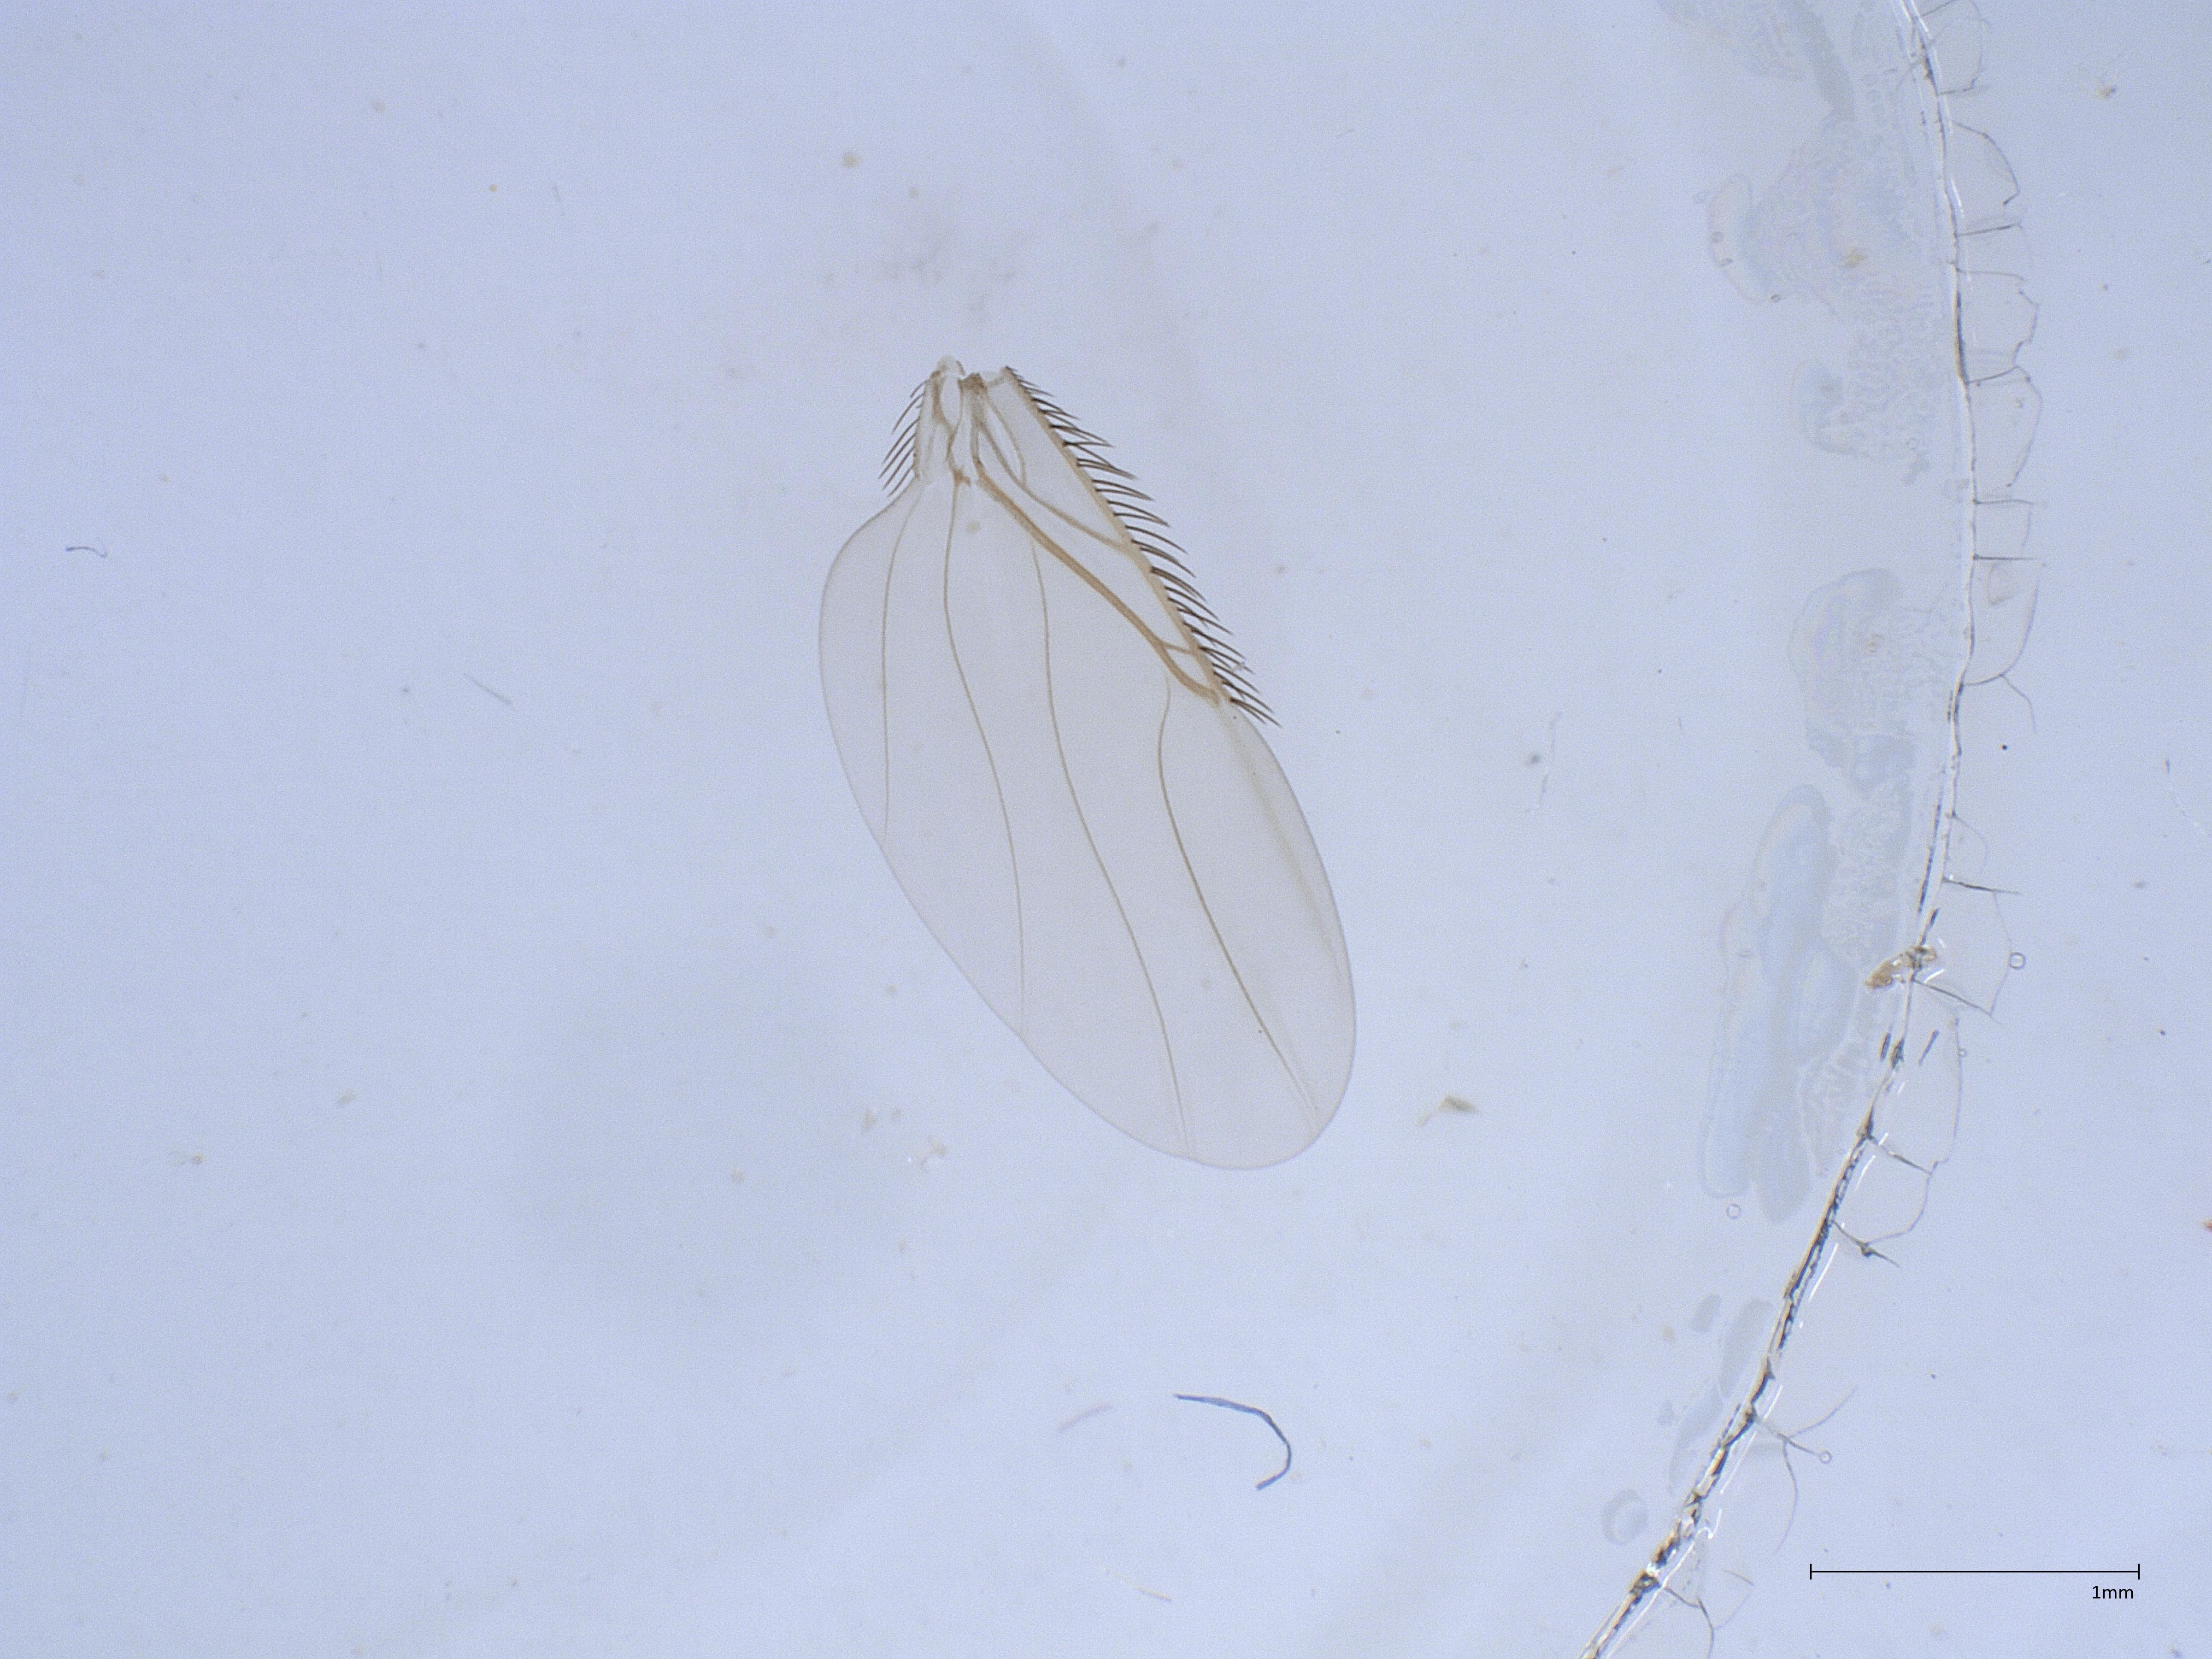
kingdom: Animalia
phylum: Arthropoda
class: Insecta
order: Diptera
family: Phoridae
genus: Megaselia
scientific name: Megaselia
